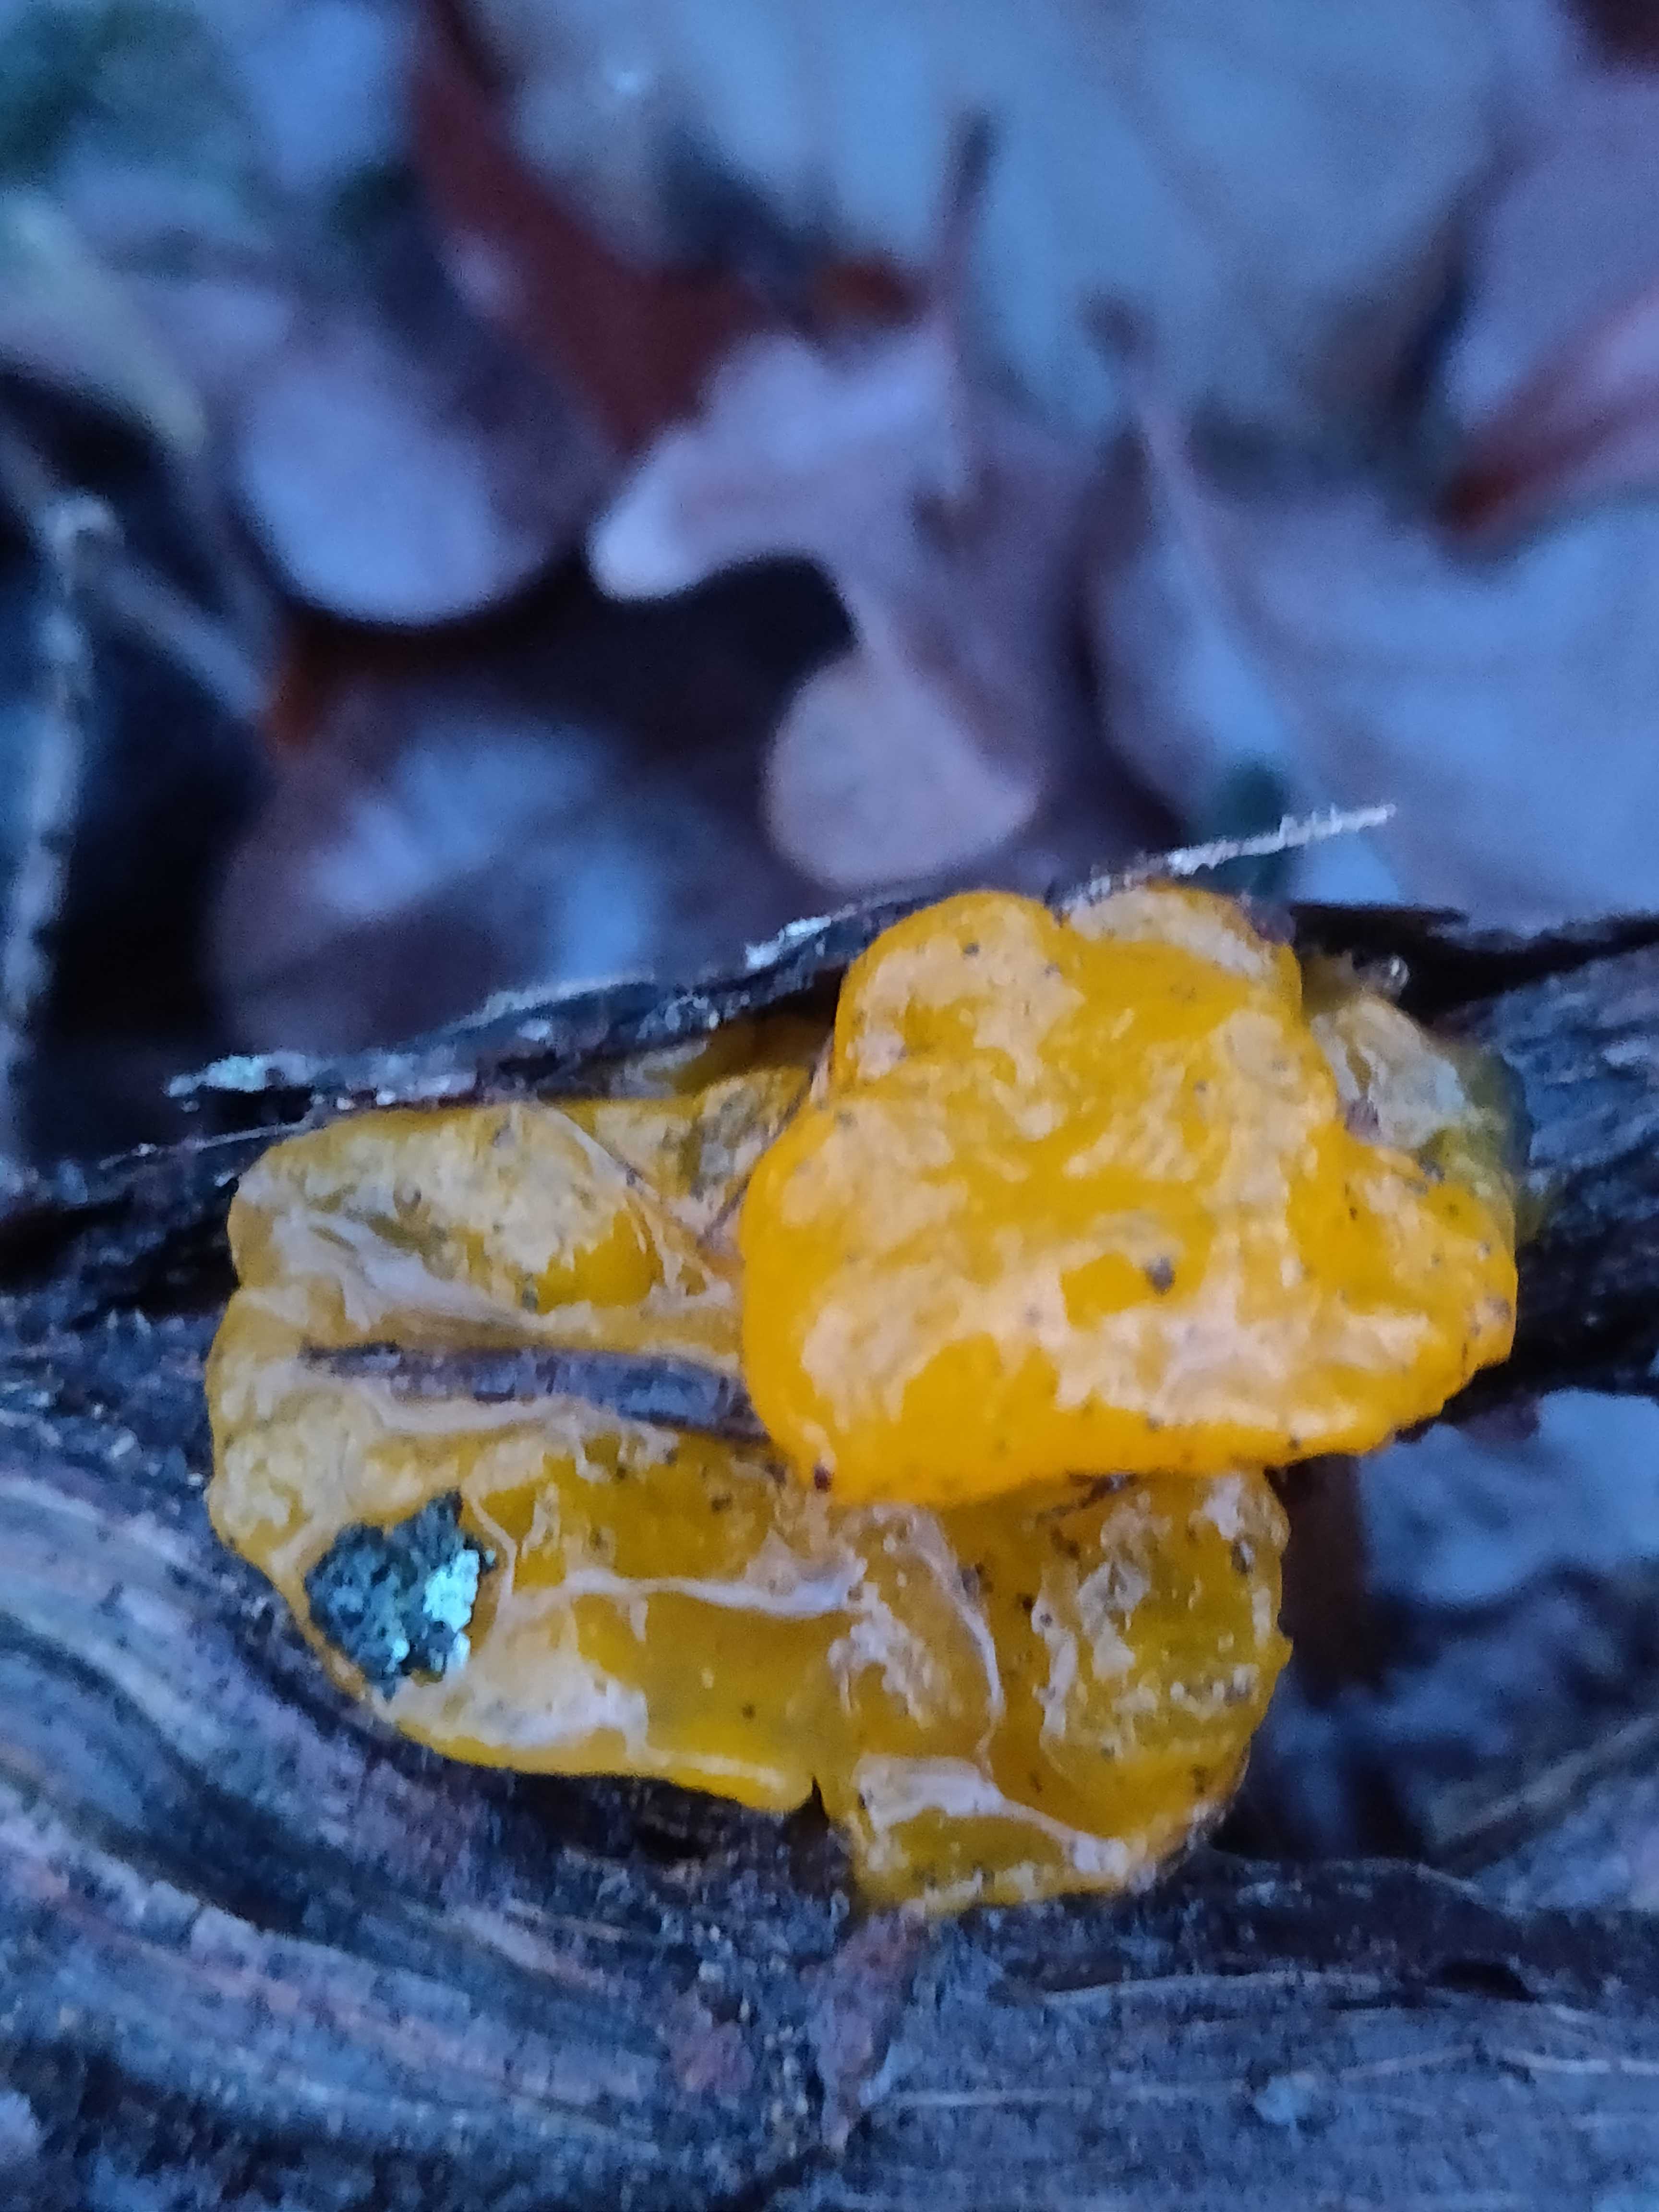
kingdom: Fungi
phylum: Basidiomycota
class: Tremellomycetes
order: Tremellales
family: Tremellaceae
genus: Tremella
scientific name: Tremella mesenterica
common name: gul bævresvamp
